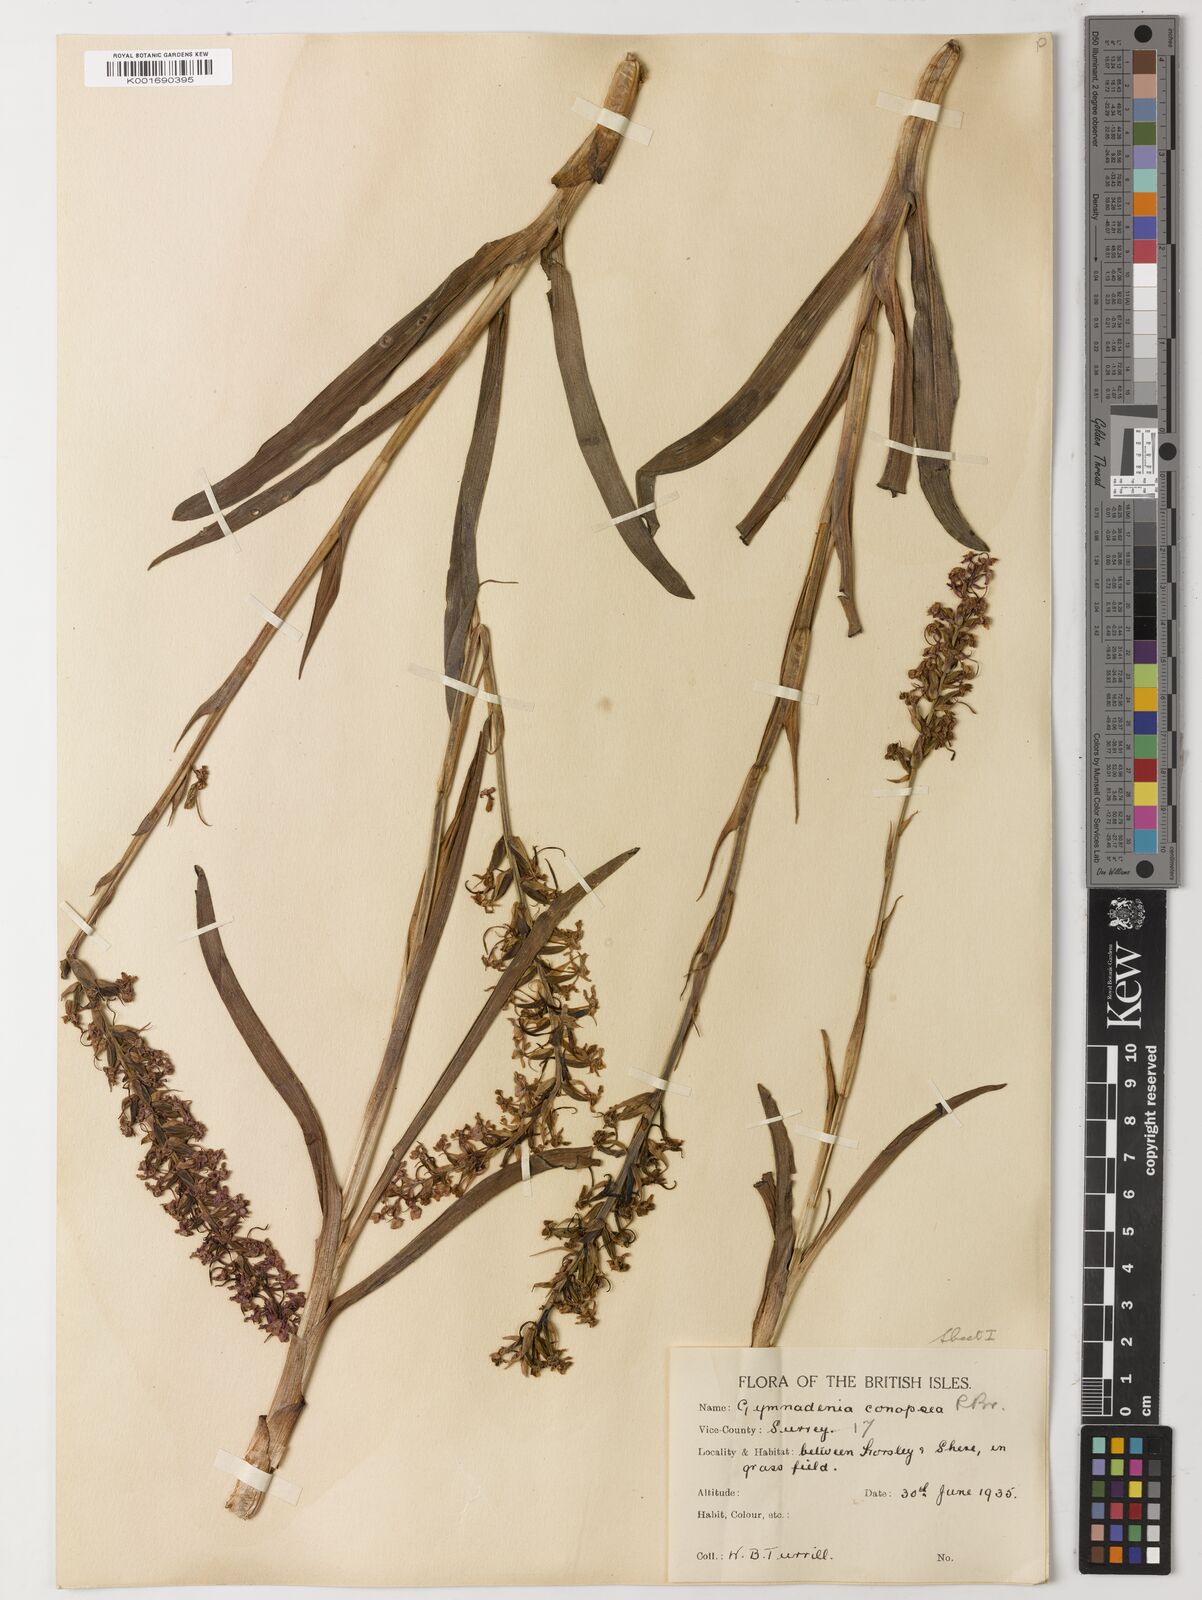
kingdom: Plantae
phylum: Tracheophyta
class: Magnoliopsida
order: Fabales
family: Fabaceae
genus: Poecilanthe
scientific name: Poecilanthe parviflora
